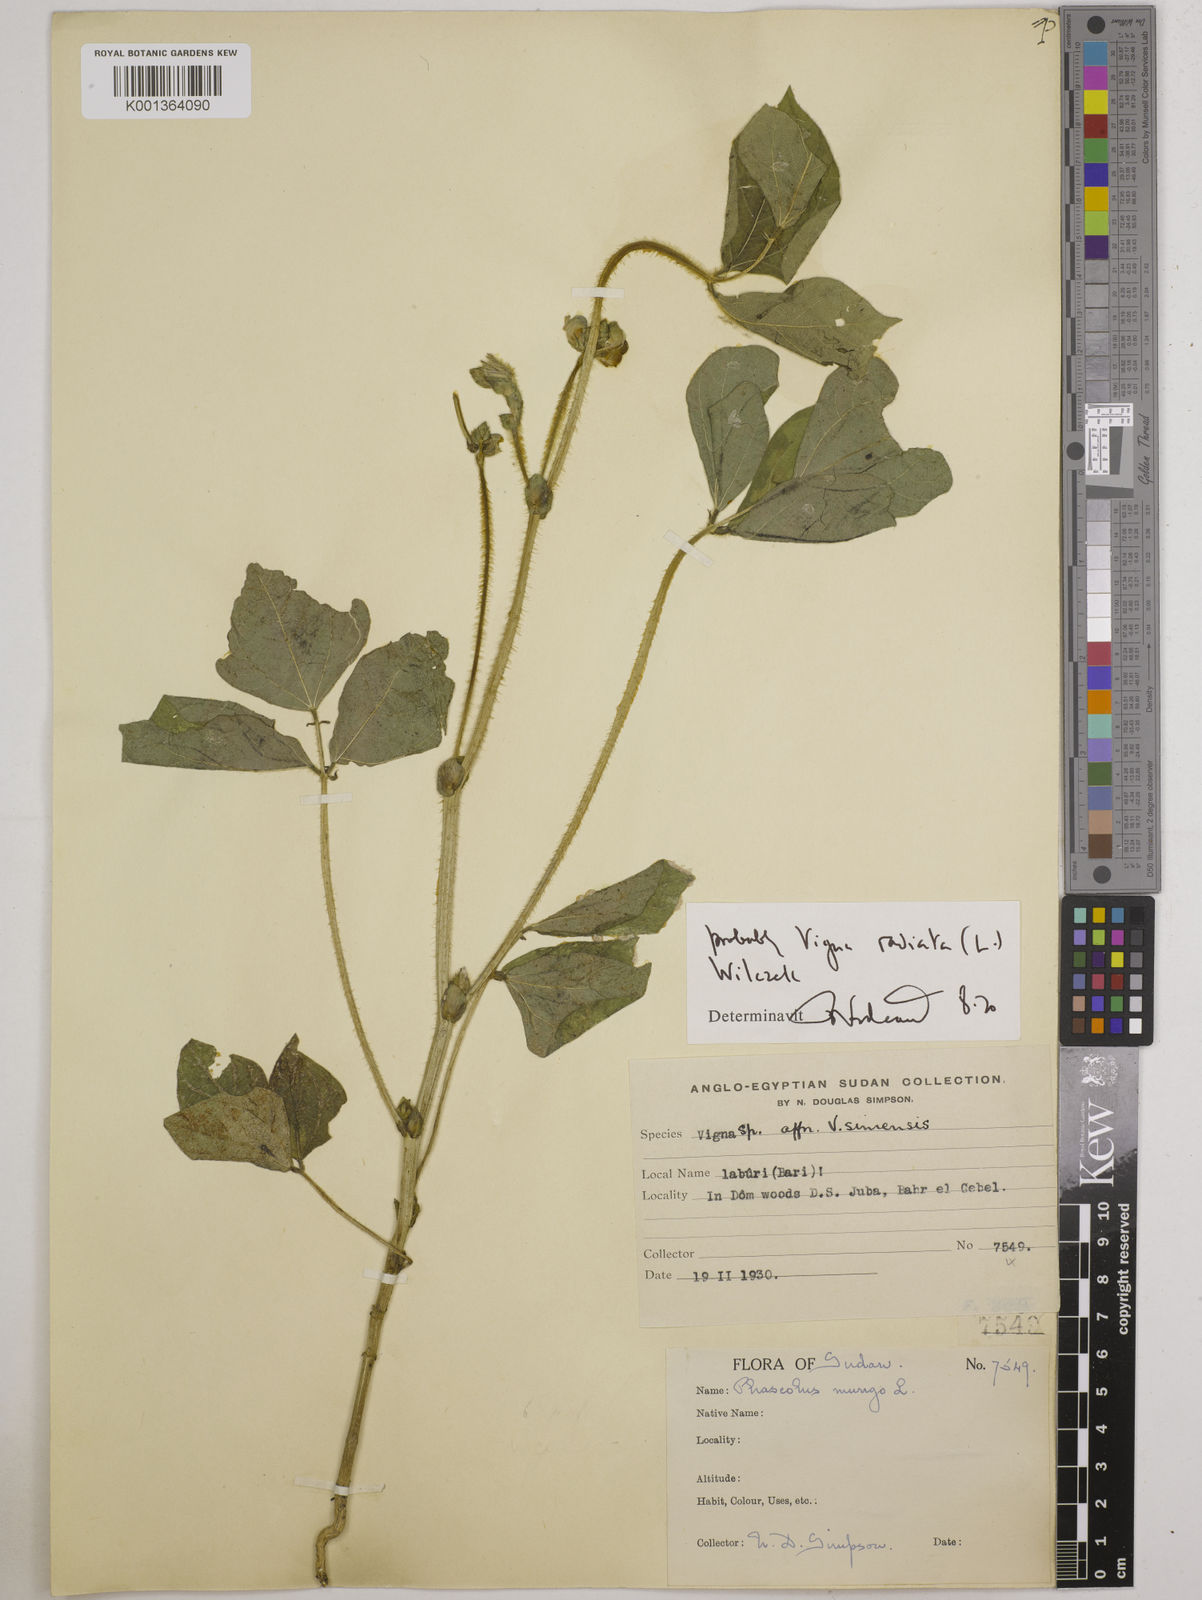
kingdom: Plantae
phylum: Tracheophyta
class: Magnoliopsida
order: Fabales
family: Fabaceae
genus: Vigna
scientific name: Vigna radiata
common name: Mung-bean
